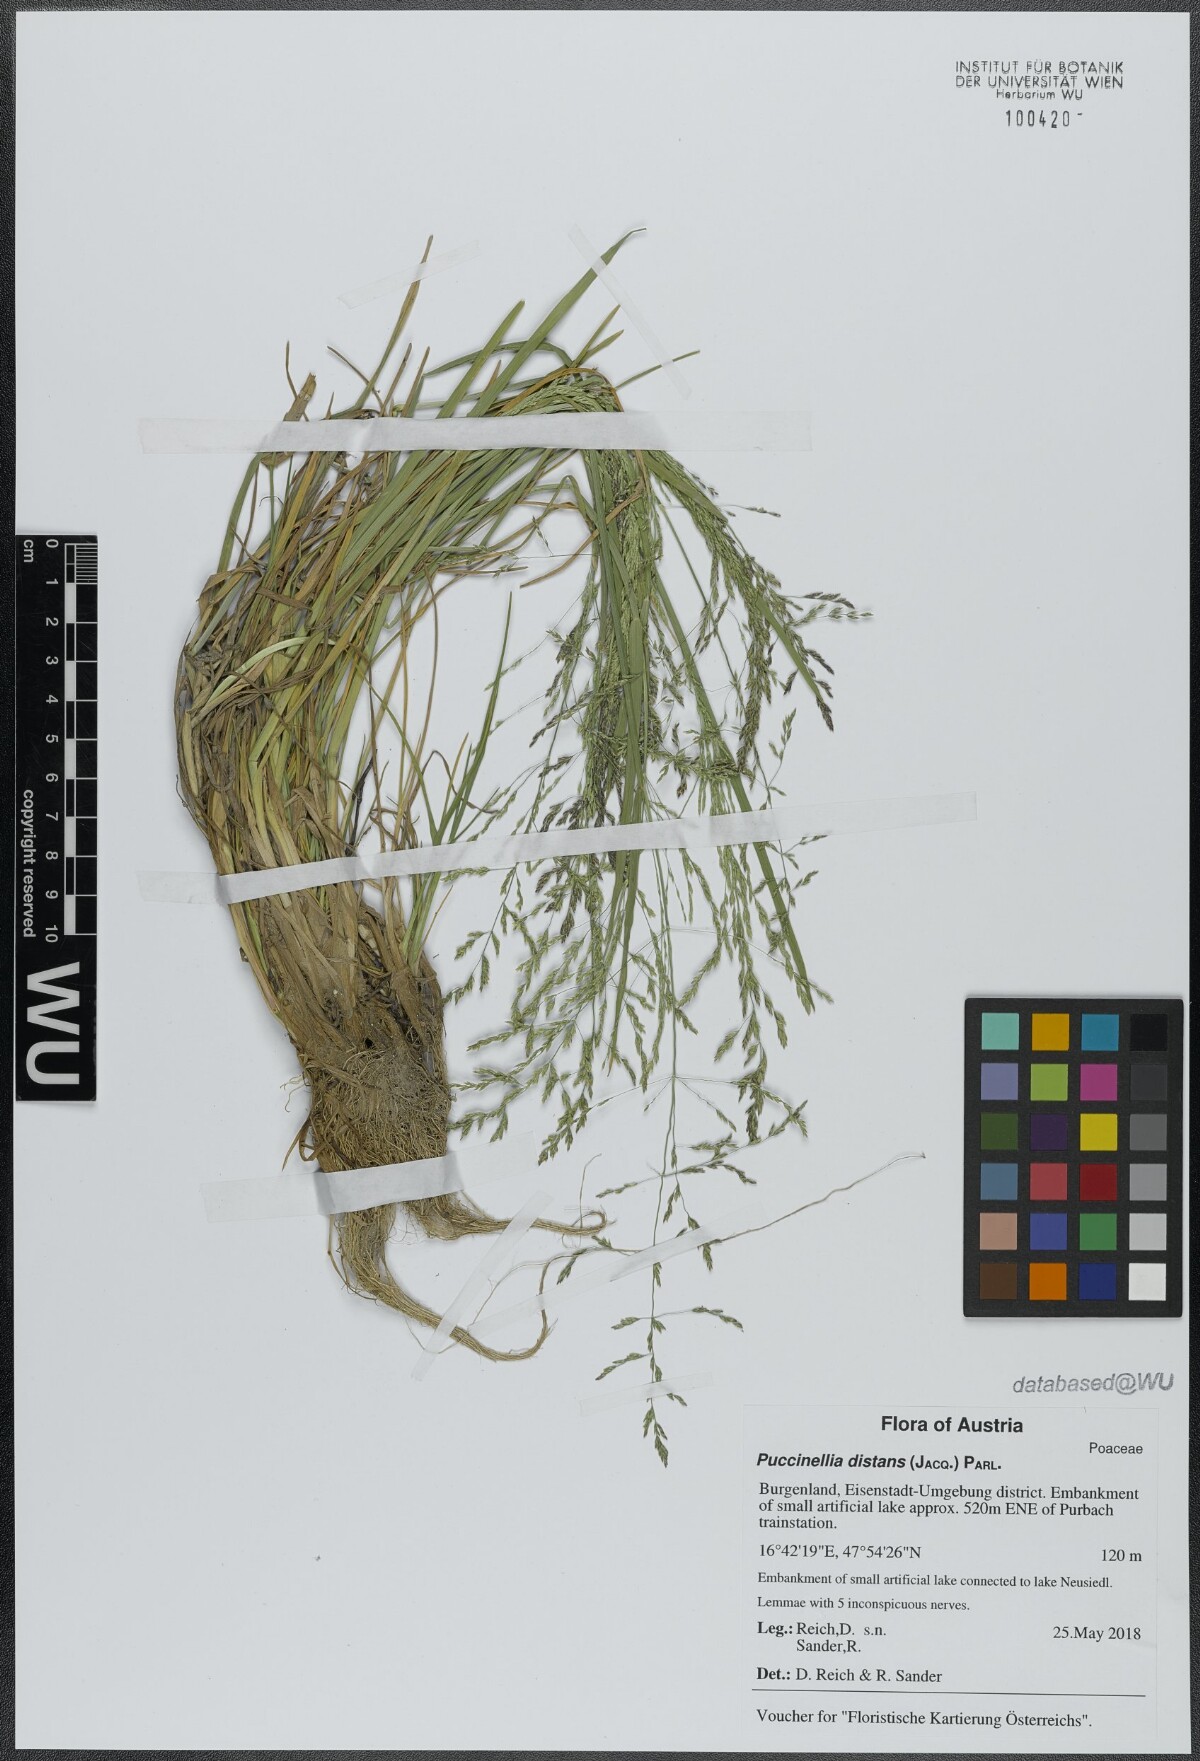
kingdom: Plantae
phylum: Tracheophyta
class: Liliopsida
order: Poales
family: Poaceae
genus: Puccinellia
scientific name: Puccinellia distans
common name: Weeping alkaligrass
